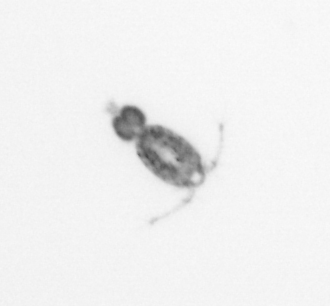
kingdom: Animalia
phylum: Arthropoda
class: Copepoda
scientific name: Copepoda
